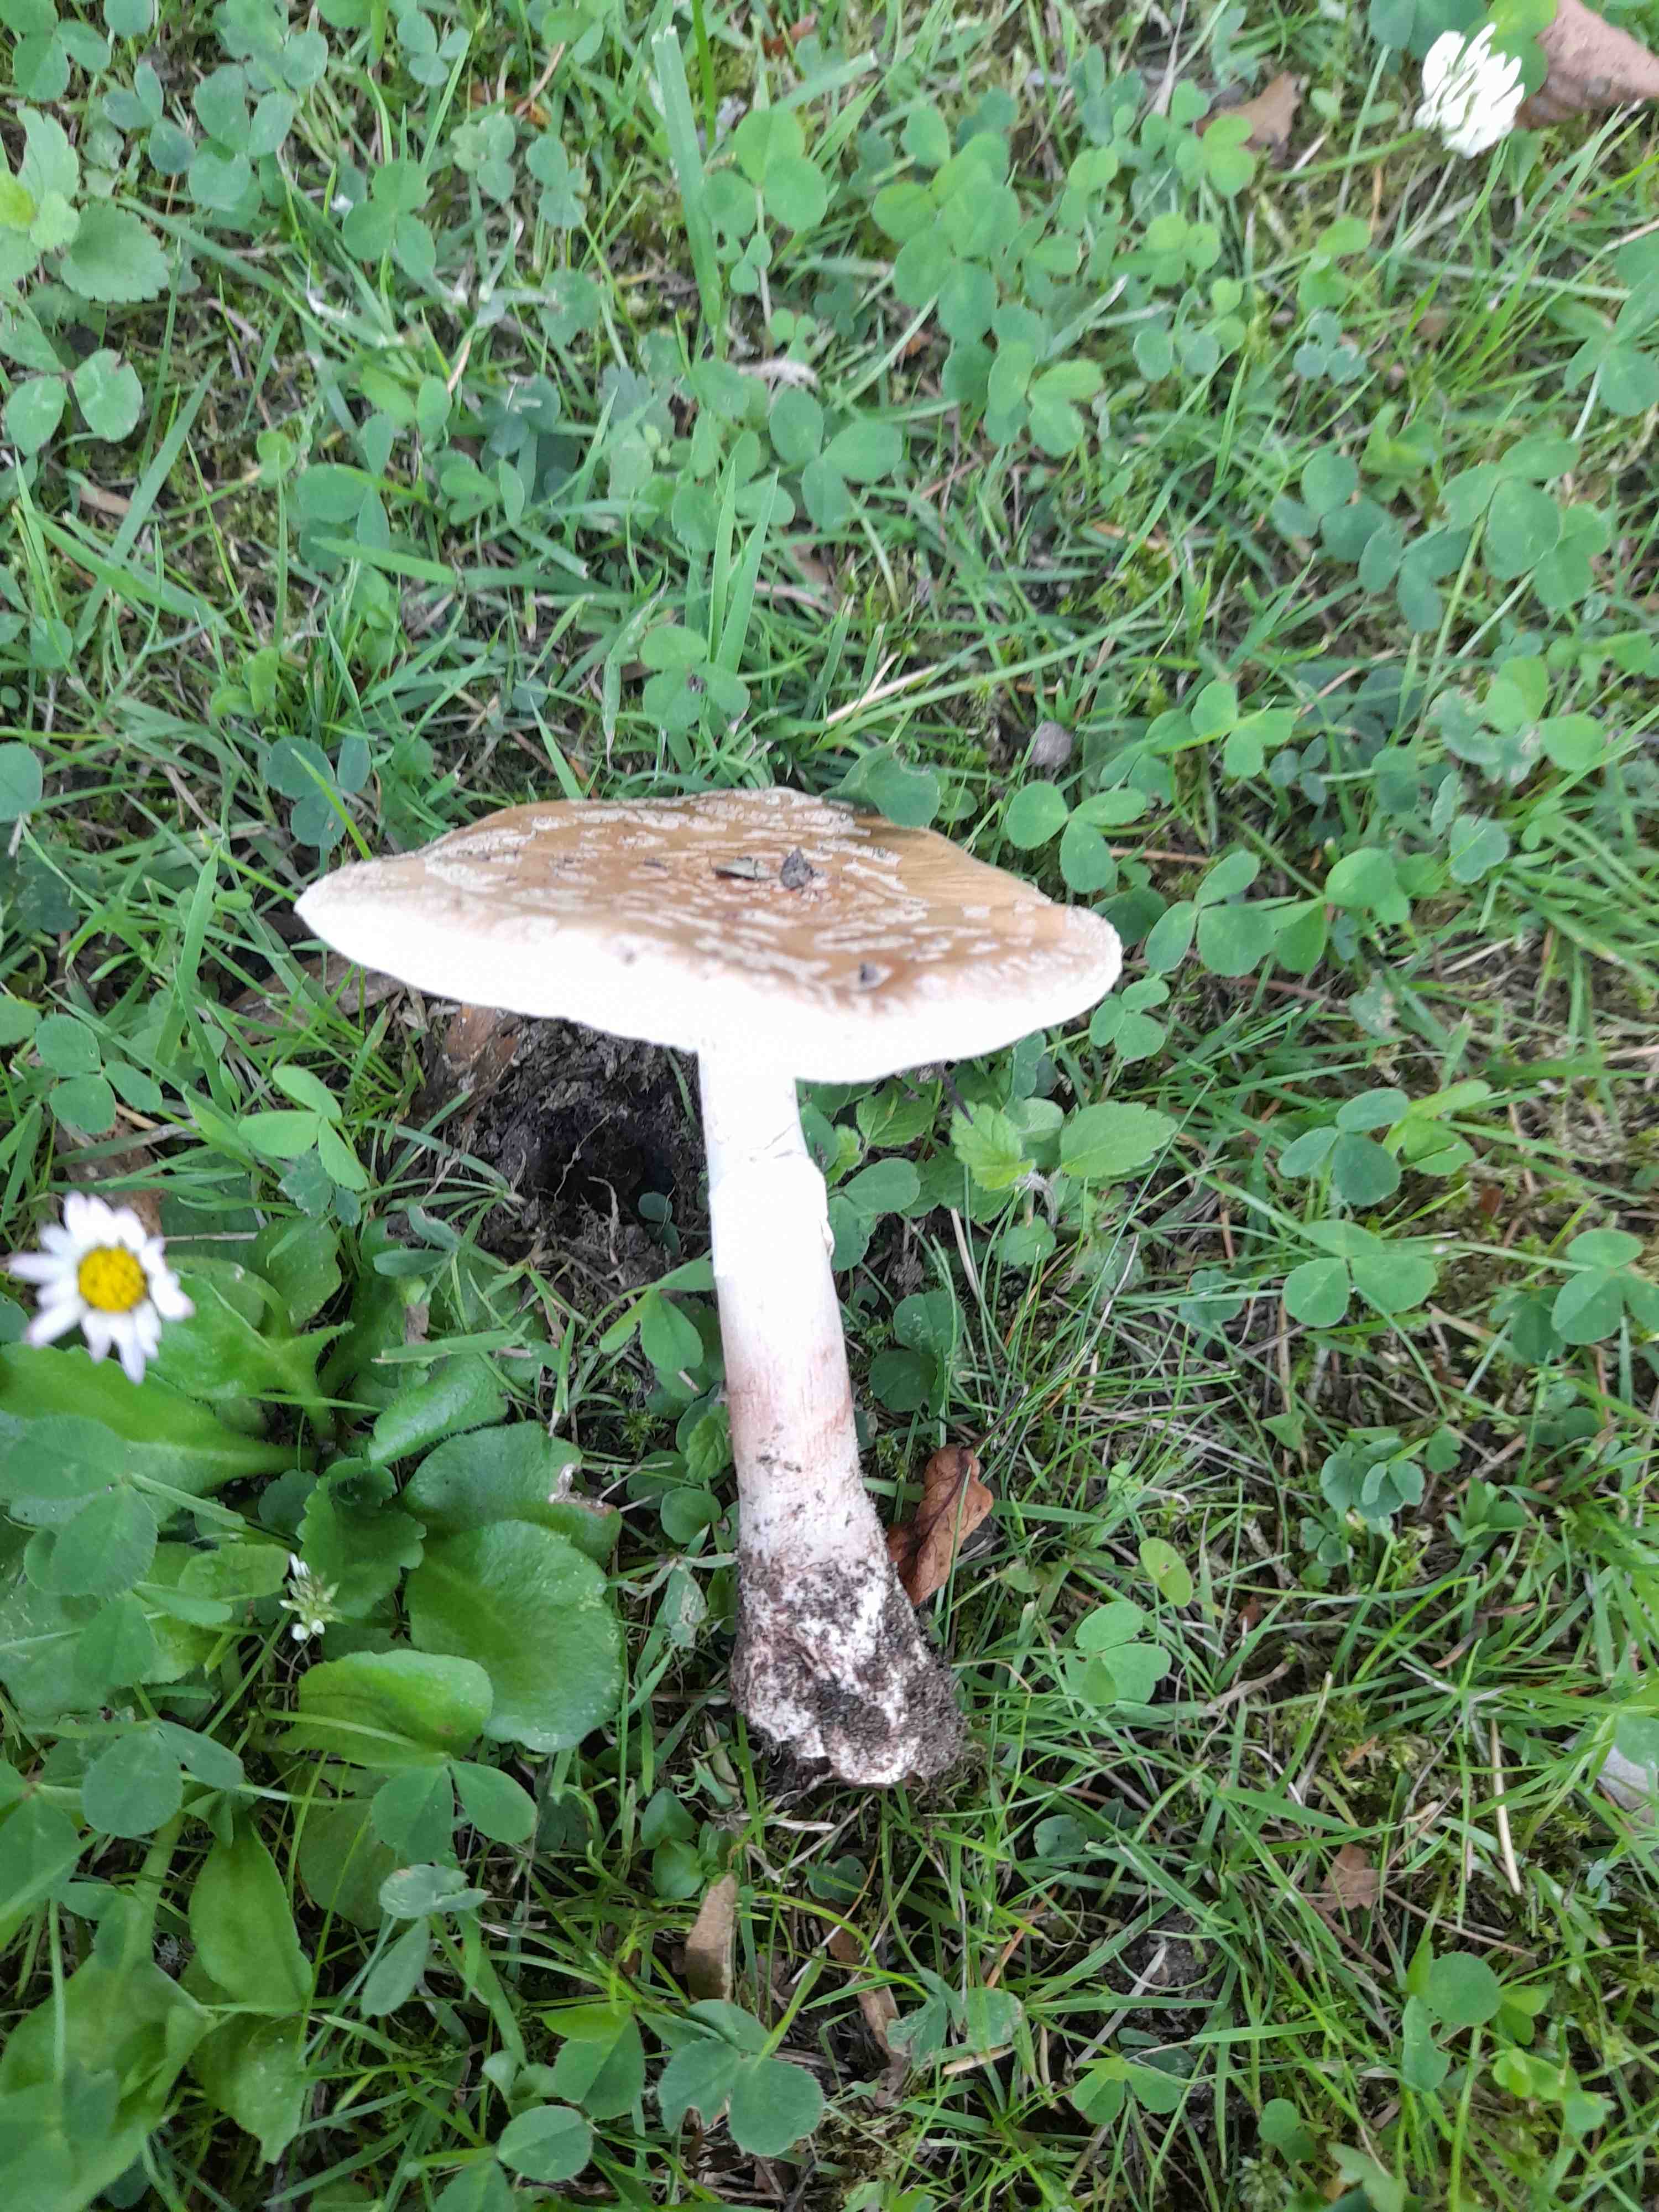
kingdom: Fungi
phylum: Basidiomycota
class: Agaricomycetes
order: Agaricales
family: Amanitaceae
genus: Amanita
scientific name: Amanita rubescens
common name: rødmende fluesvamp
